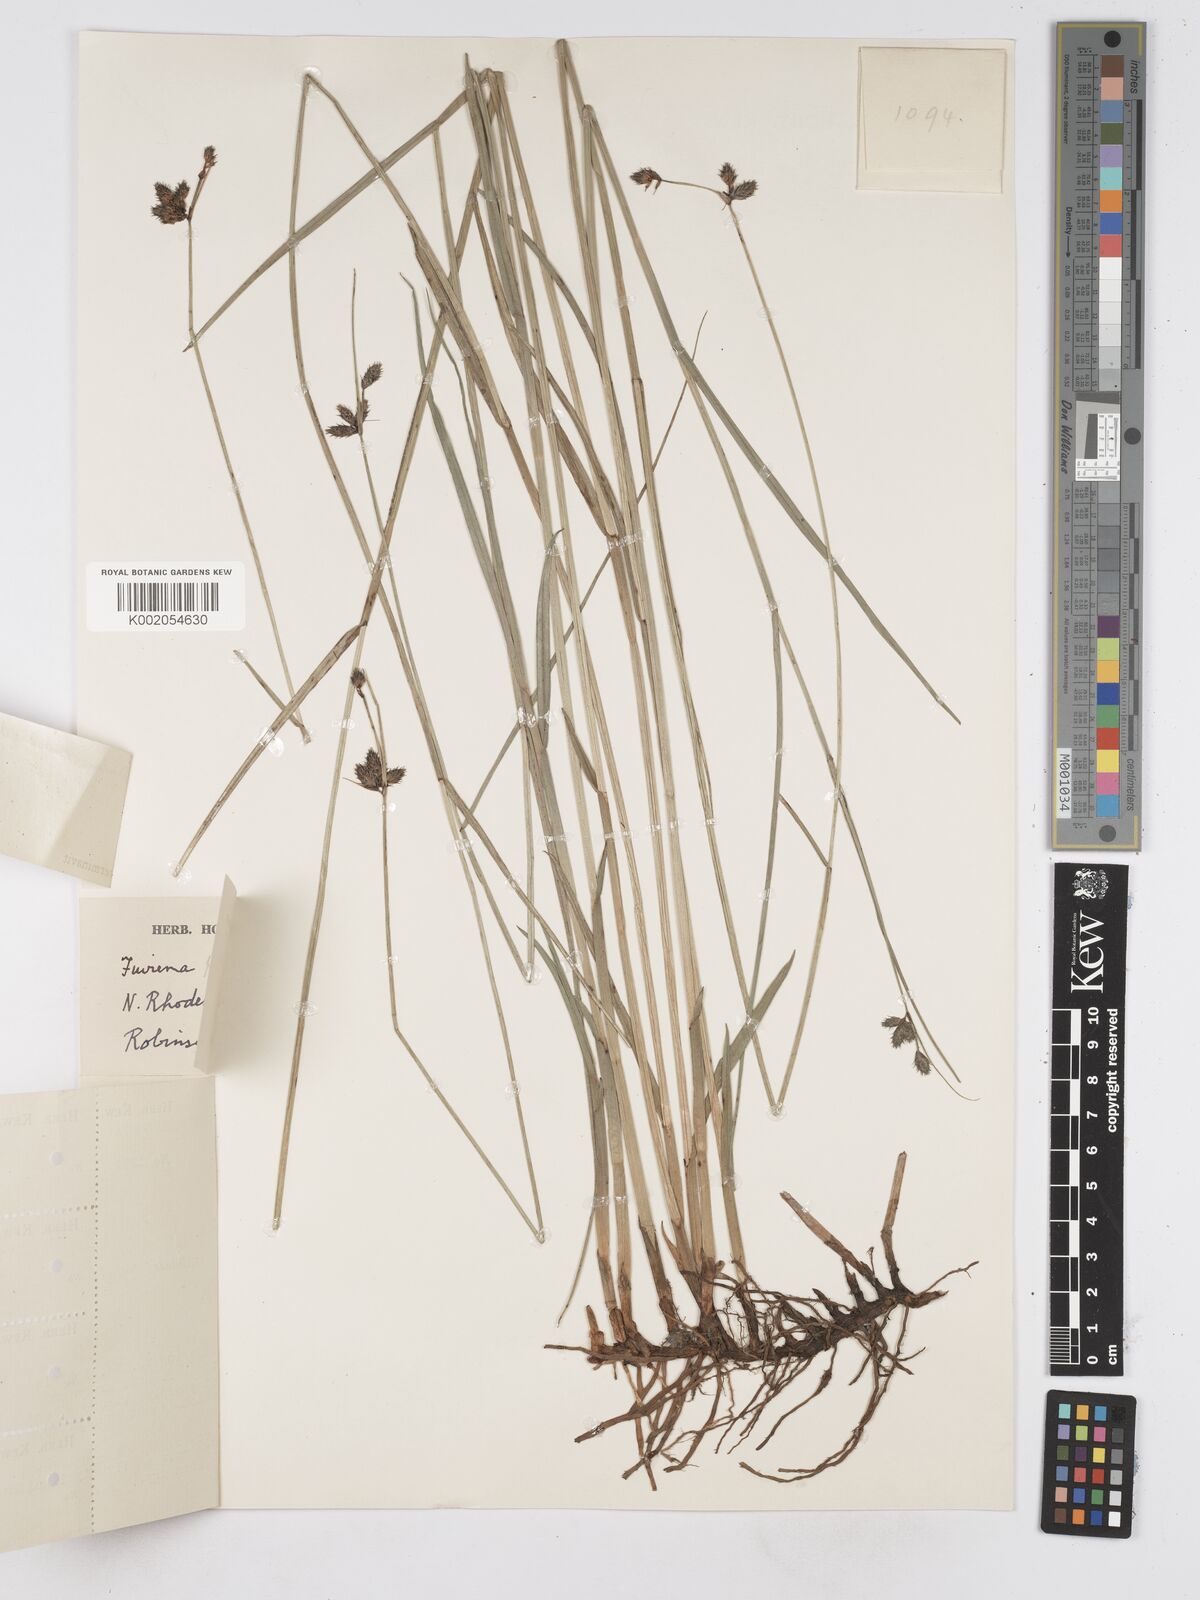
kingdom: Plantae
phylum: Tracheophyta
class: Liliopsida
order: Poales
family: Cyperaceae
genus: Fuirena
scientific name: Fuirena coerulescens
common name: Blue umbrella-sedge
